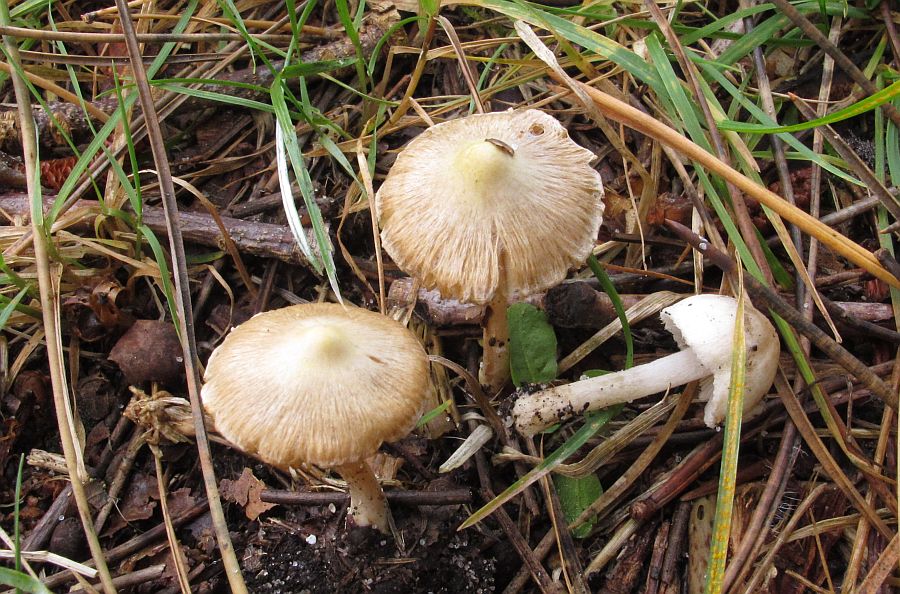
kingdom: Fungi
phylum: Basidiomycota
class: Agaricomycetes
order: Agaricales
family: Inocybaceae
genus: Pseudosperma
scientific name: Pseudosperma rimosum
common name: gulbladet trævlhat
